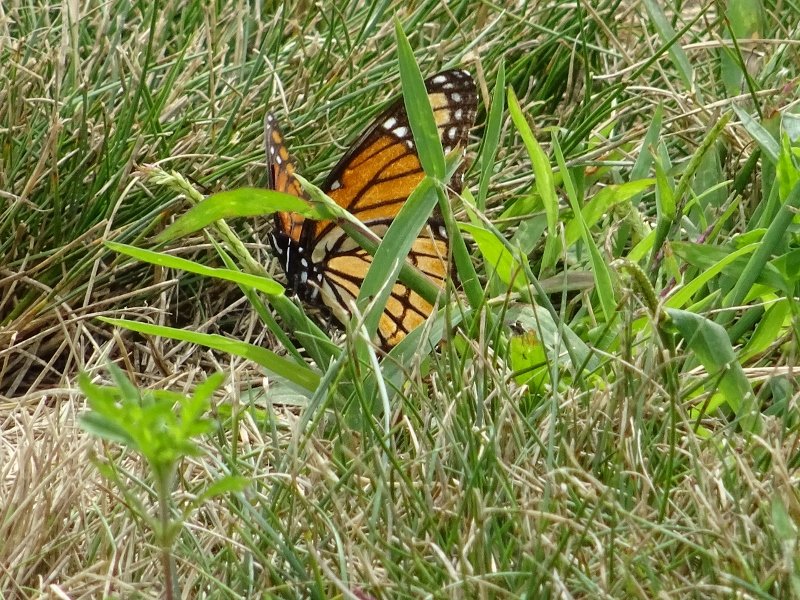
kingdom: Animalia
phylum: Arthropoda
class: Insecta
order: Lepidoptera
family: Nymphalidae
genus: Limenitis
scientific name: Limenitis archippus
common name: Viceroy
